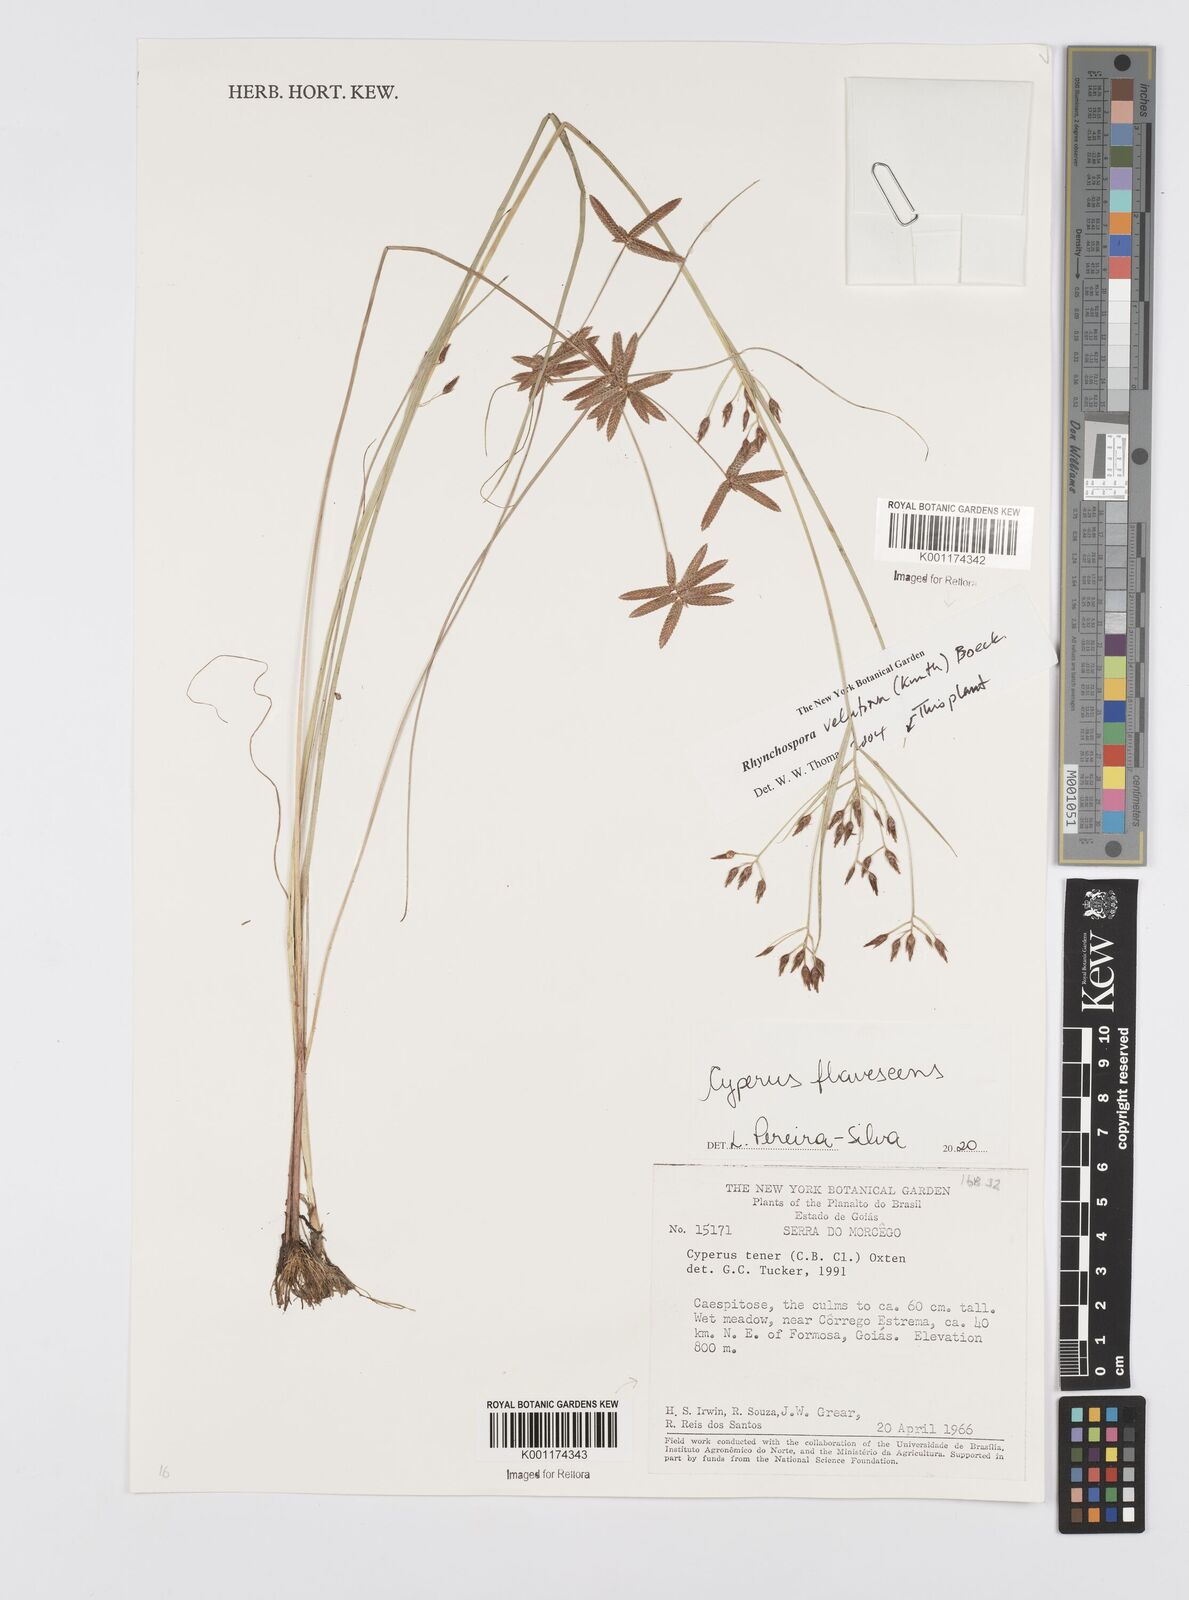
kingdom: Plantae
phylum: Tracheophyta
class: Liliopsida
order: Poales
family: Cyperaceae
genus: Cyperus
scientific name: Cyperus flavescens
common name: Yellow galingale
